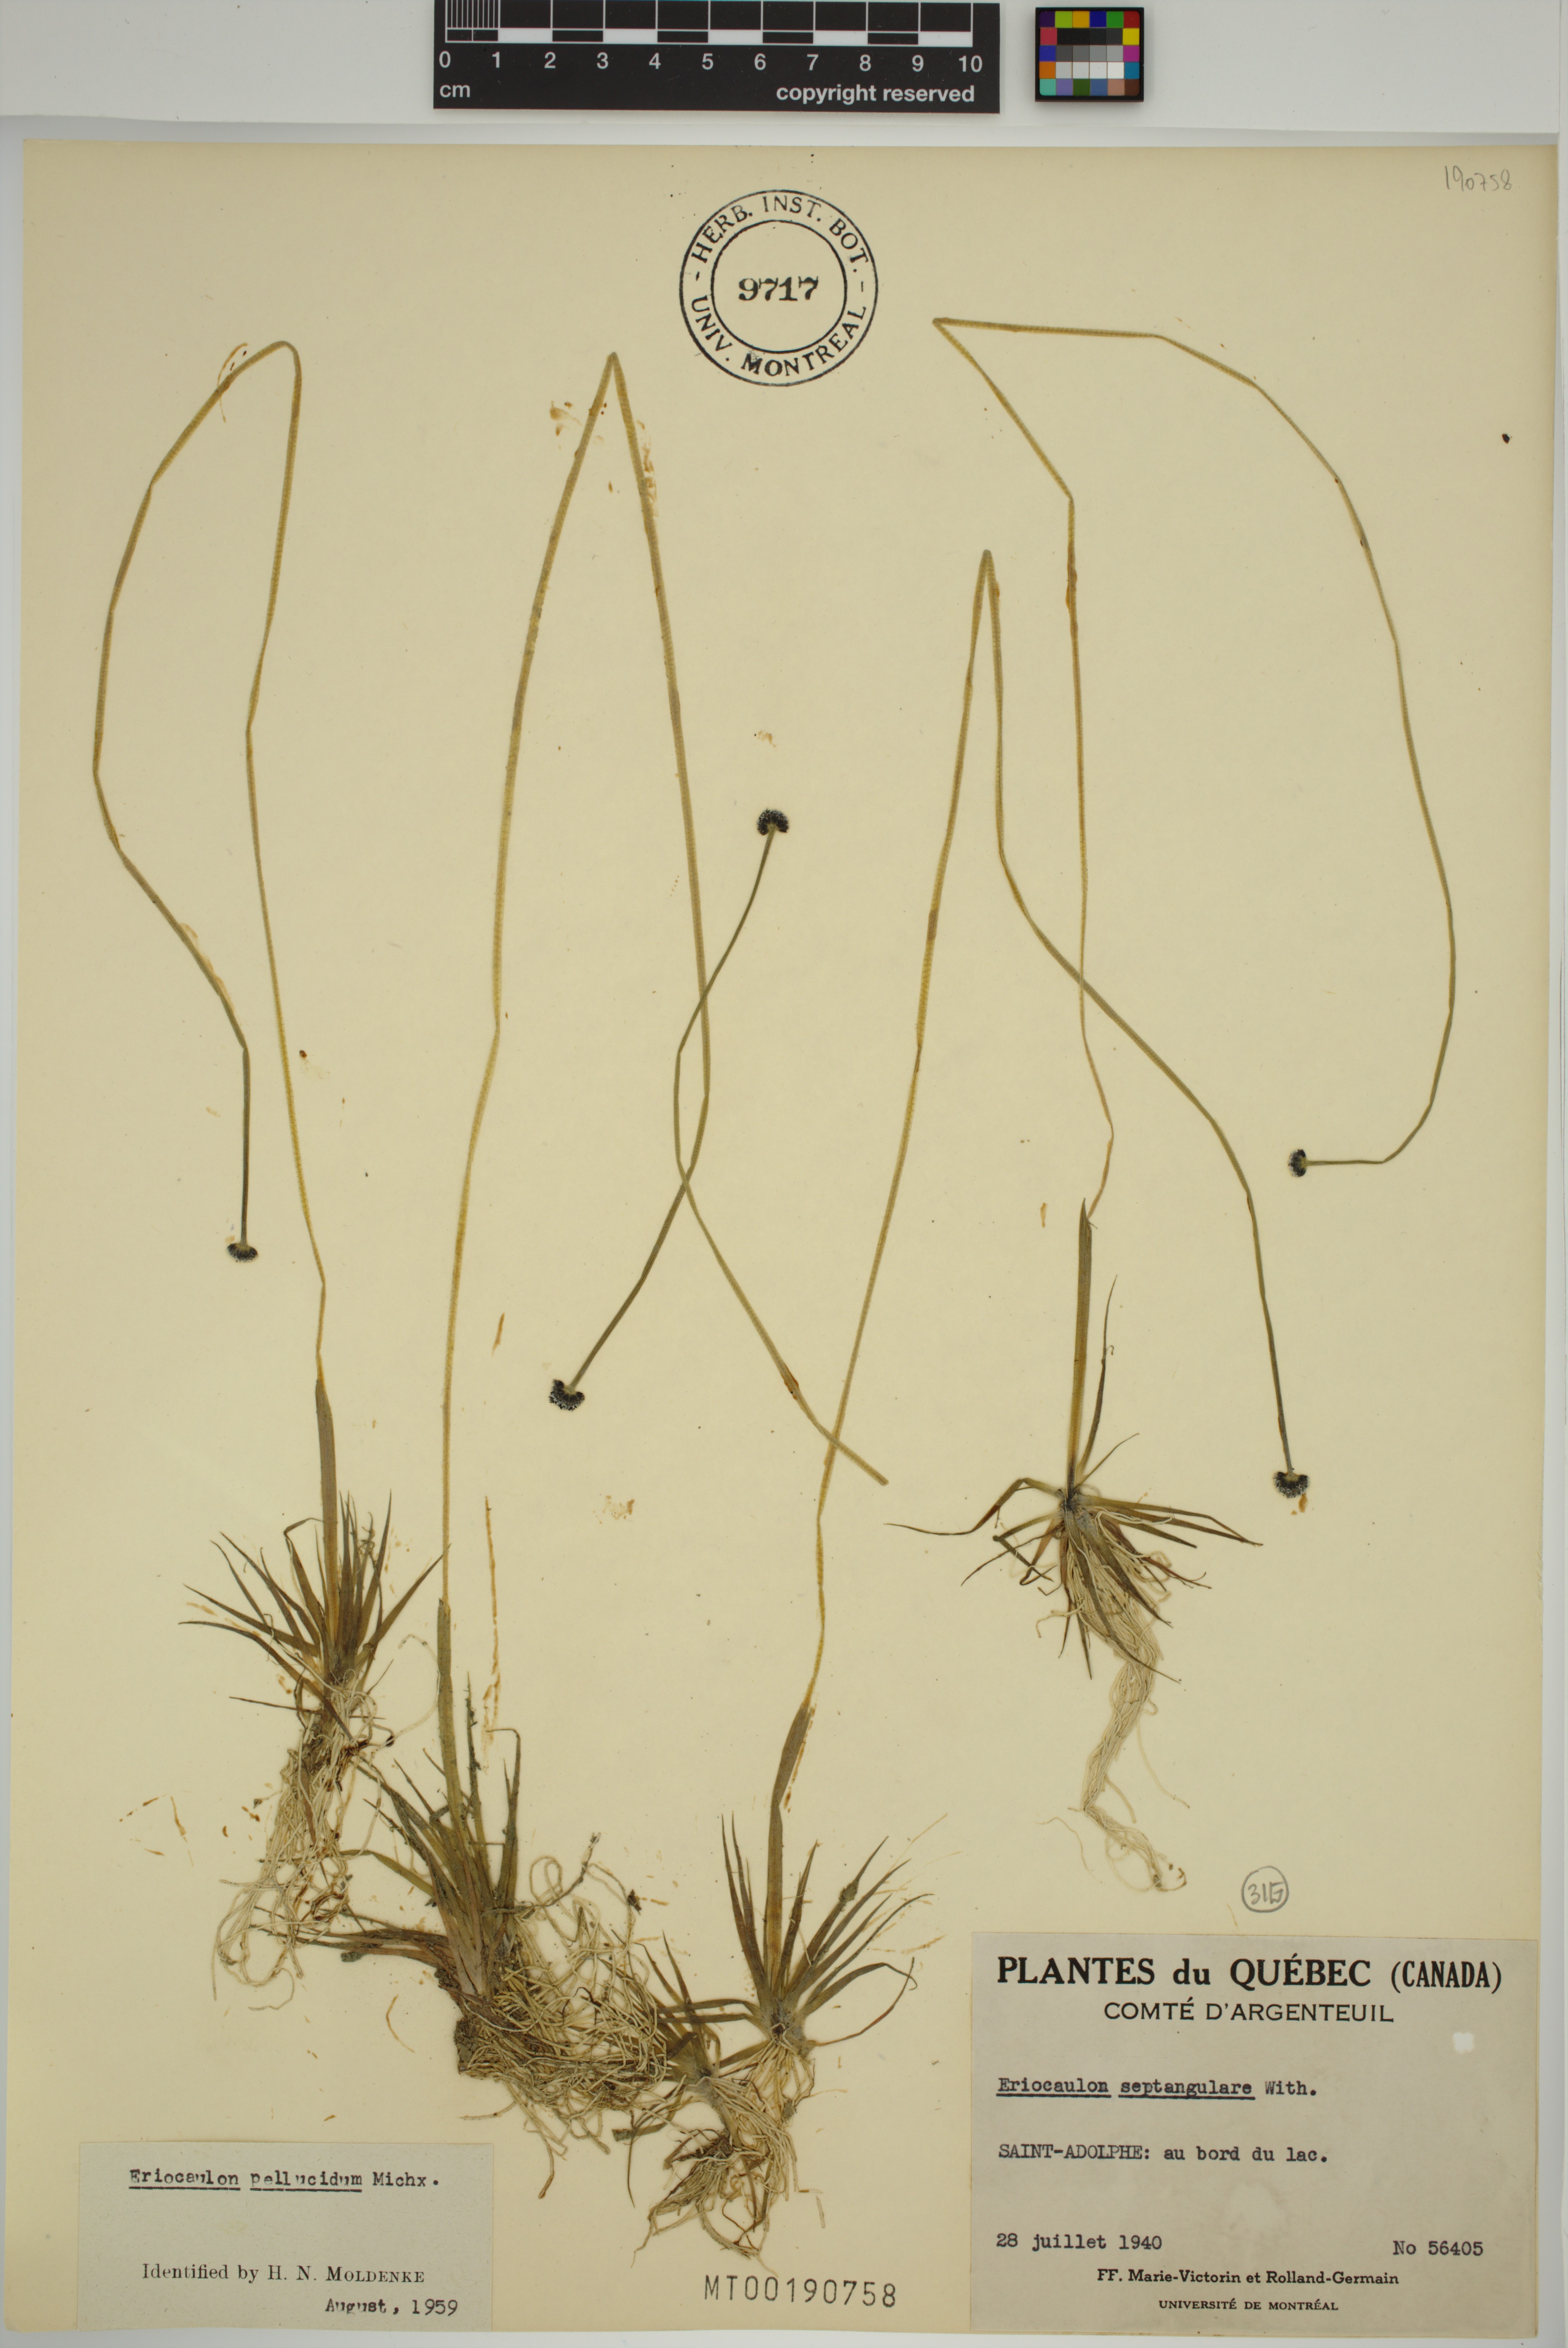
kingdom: Plantae
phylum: Tracheophyta
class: Liliopsida
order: Poales
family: Eriocaulaceae
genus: Eriocaulon
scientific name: Eriocaulon aquaticum
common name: Pipewort
